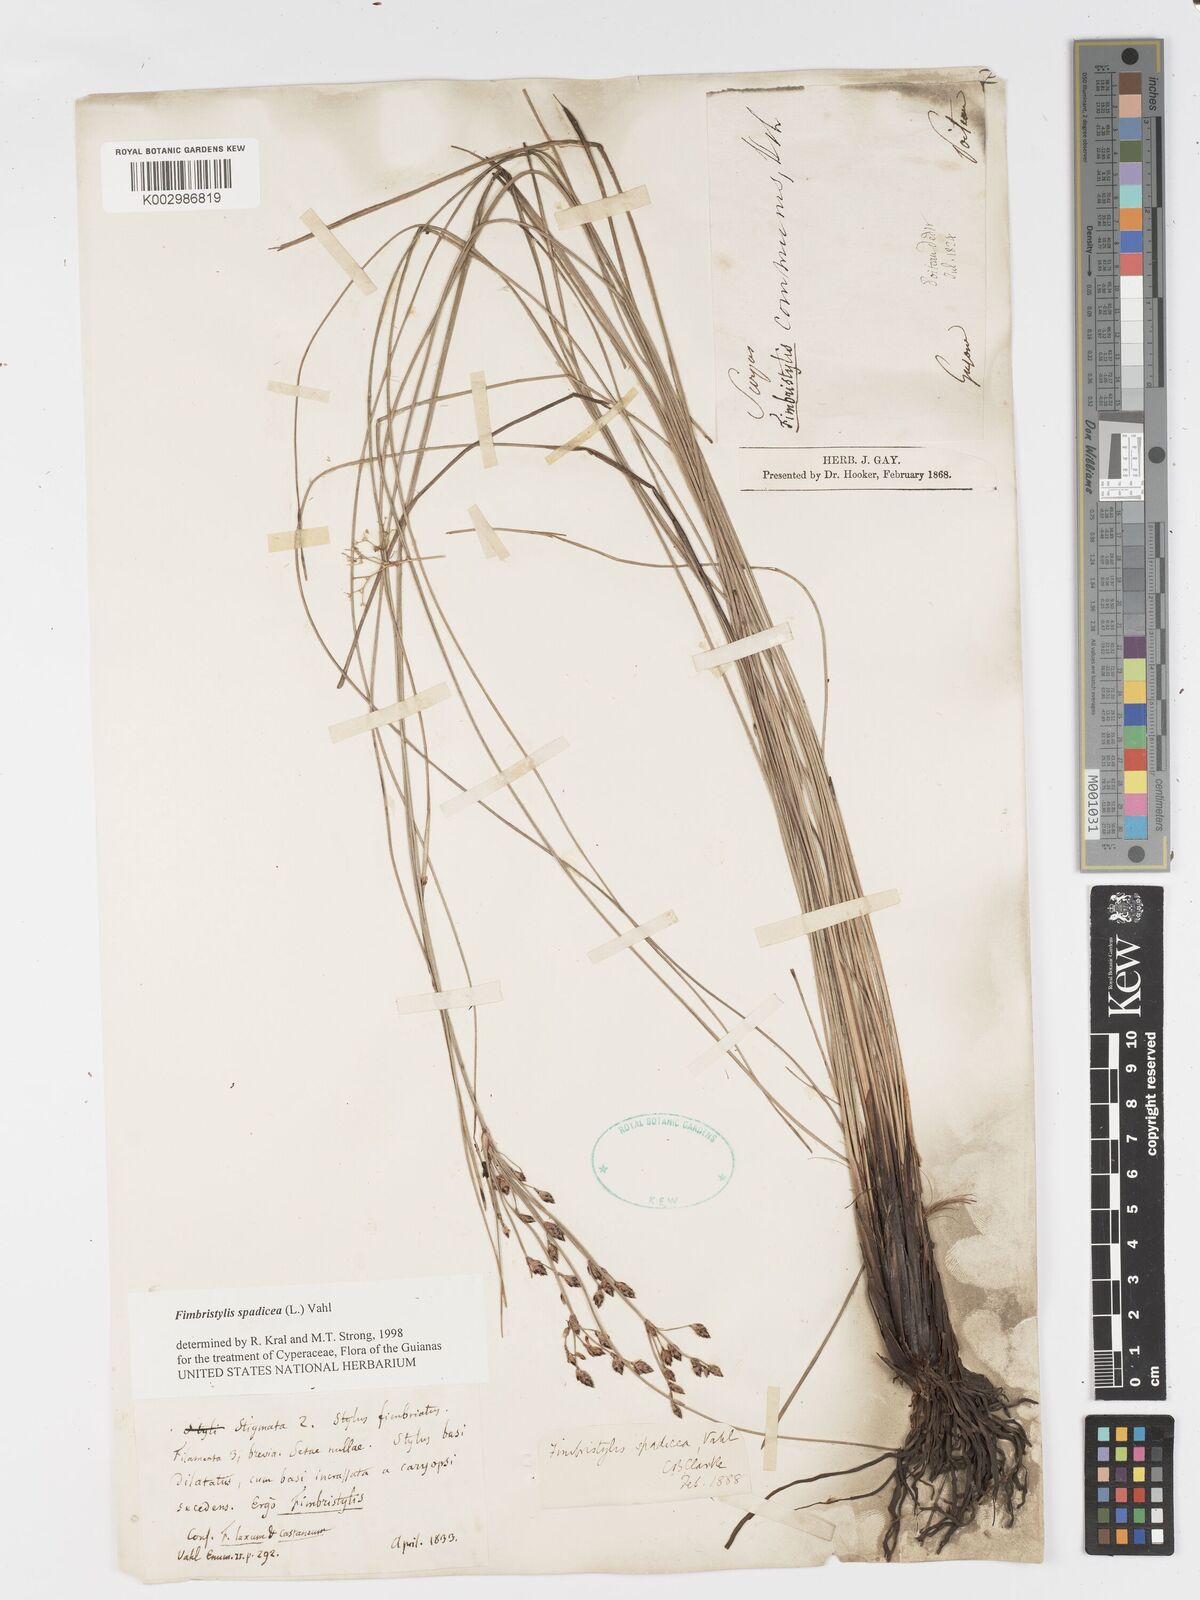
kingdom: Plantae
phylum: Tracheophyta
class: Liliopsida
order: Poales
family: Cyperaceae
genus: Fimbristylis
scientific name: Fimbristylis spadicea
